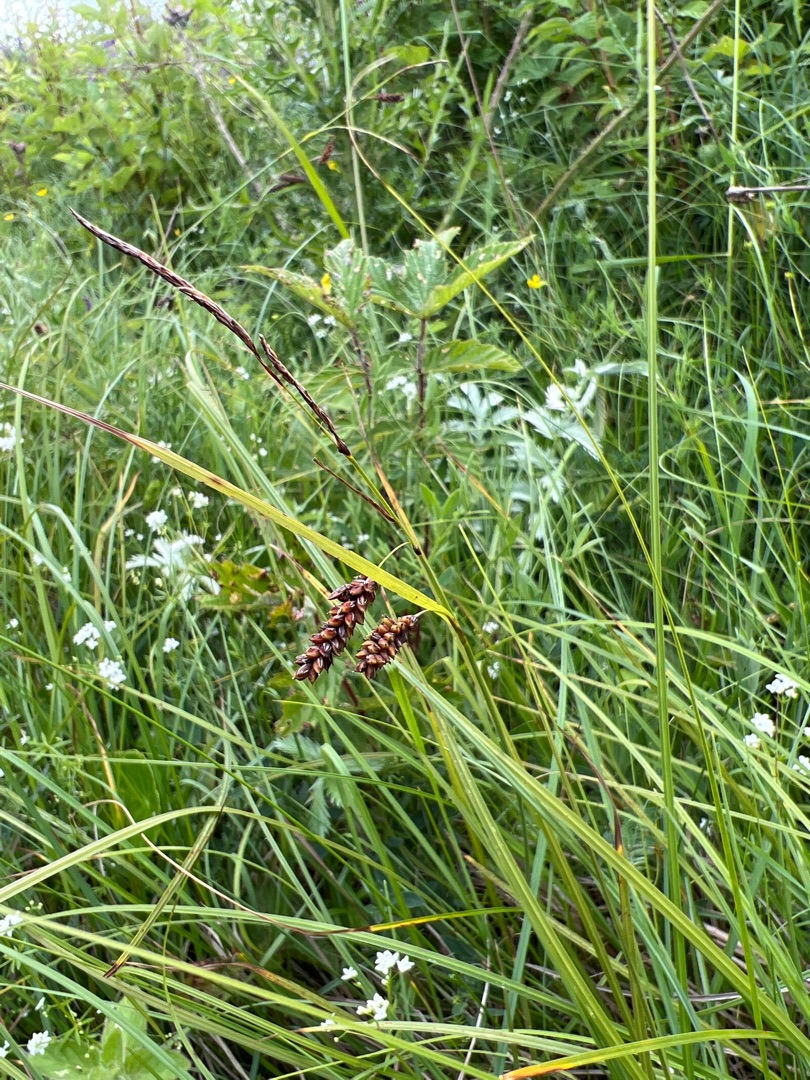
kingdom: Plantae
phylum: Tracheophyta
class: Liliopsida
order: Poales
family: Cyperaceae
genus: Carex
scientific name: Carex flacca
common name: Blågrøn star
